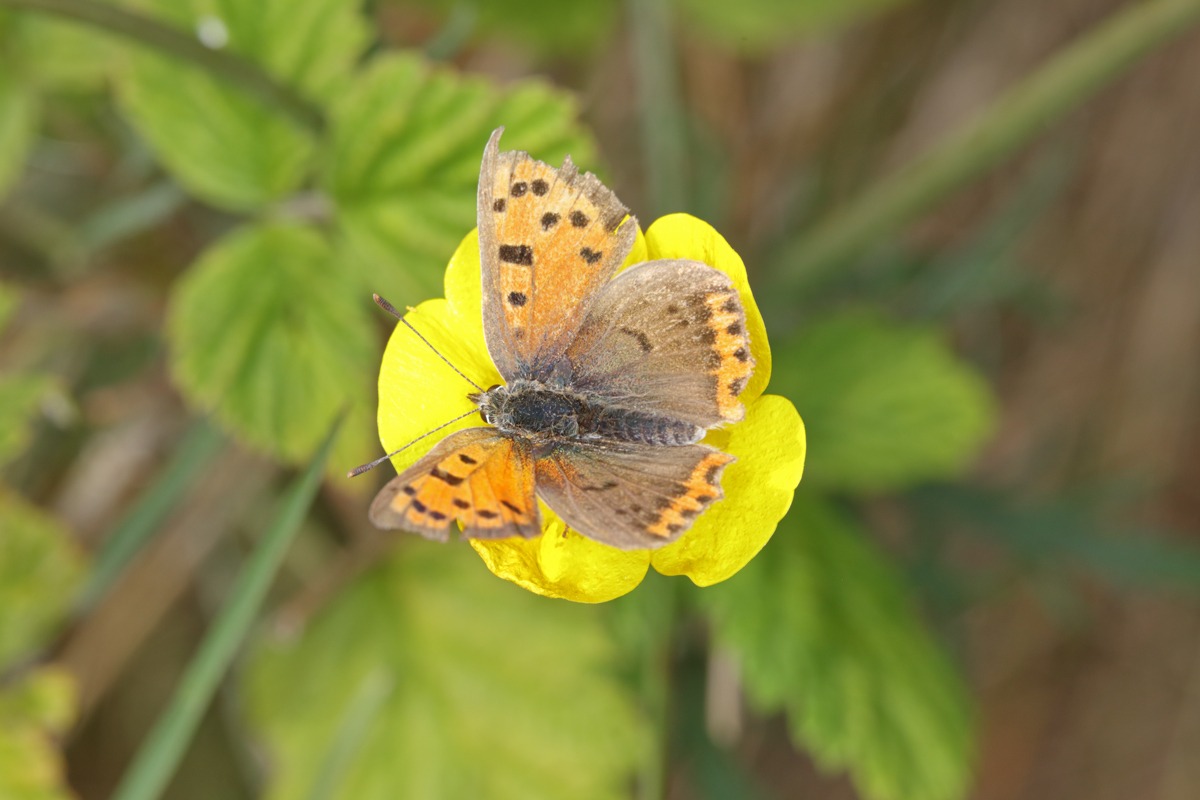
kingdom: Animalia
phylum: Arthropoda
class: Insecta
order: Lepidoptera
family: Lycaenidae
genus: Lycaena
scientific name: Lycaena phlaeas
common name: Lille ildfugl
